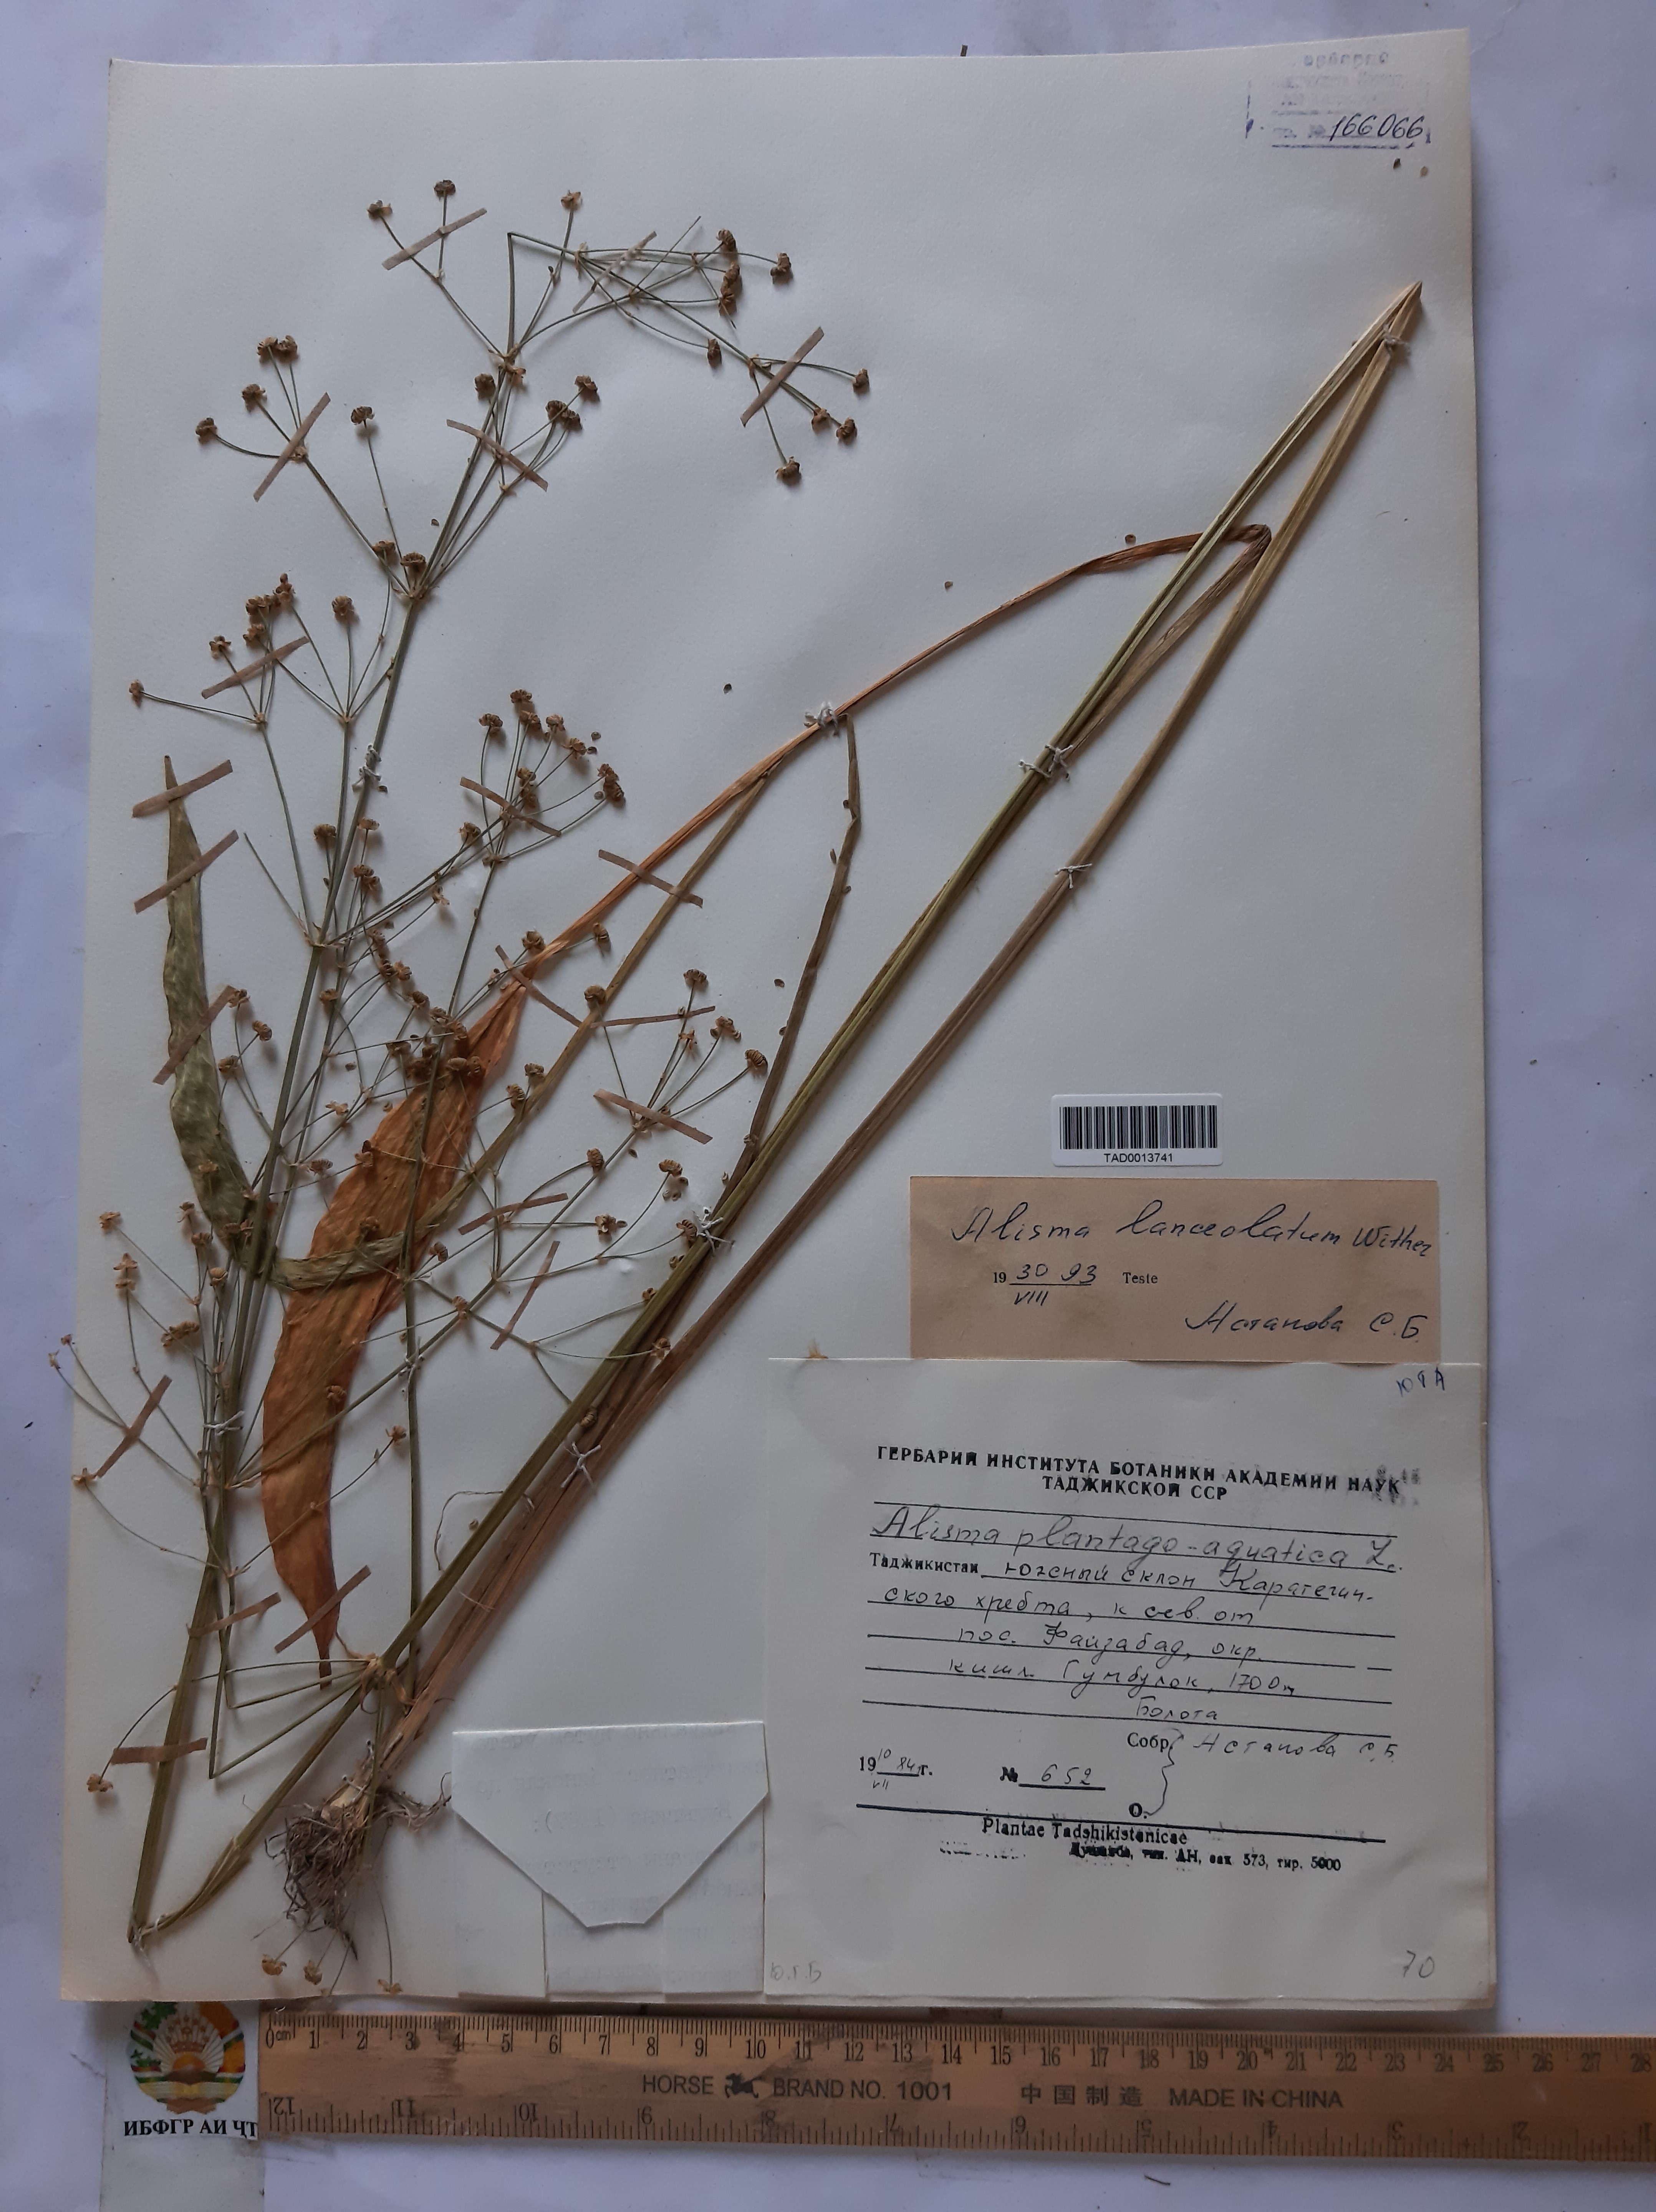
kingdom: Plantae
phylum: Tracheophyta
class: Liliopsida
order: Alismatales
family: Alismataceae
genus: Alisma
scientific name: Alisma lanceolatum
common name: Narrow-leaved water-plantain
